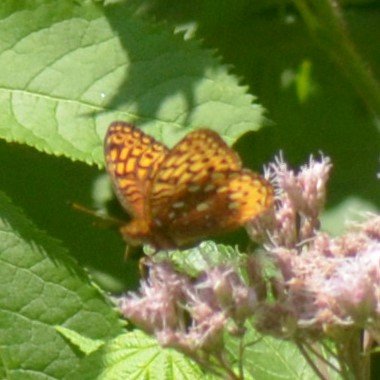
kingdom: Animalia
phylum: Arthropoda
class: Insecta
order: Lepidoptera
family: Nymphalidae
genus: Speyeria
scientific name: Speyeria cybele
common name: Great Spangled Fritillary
